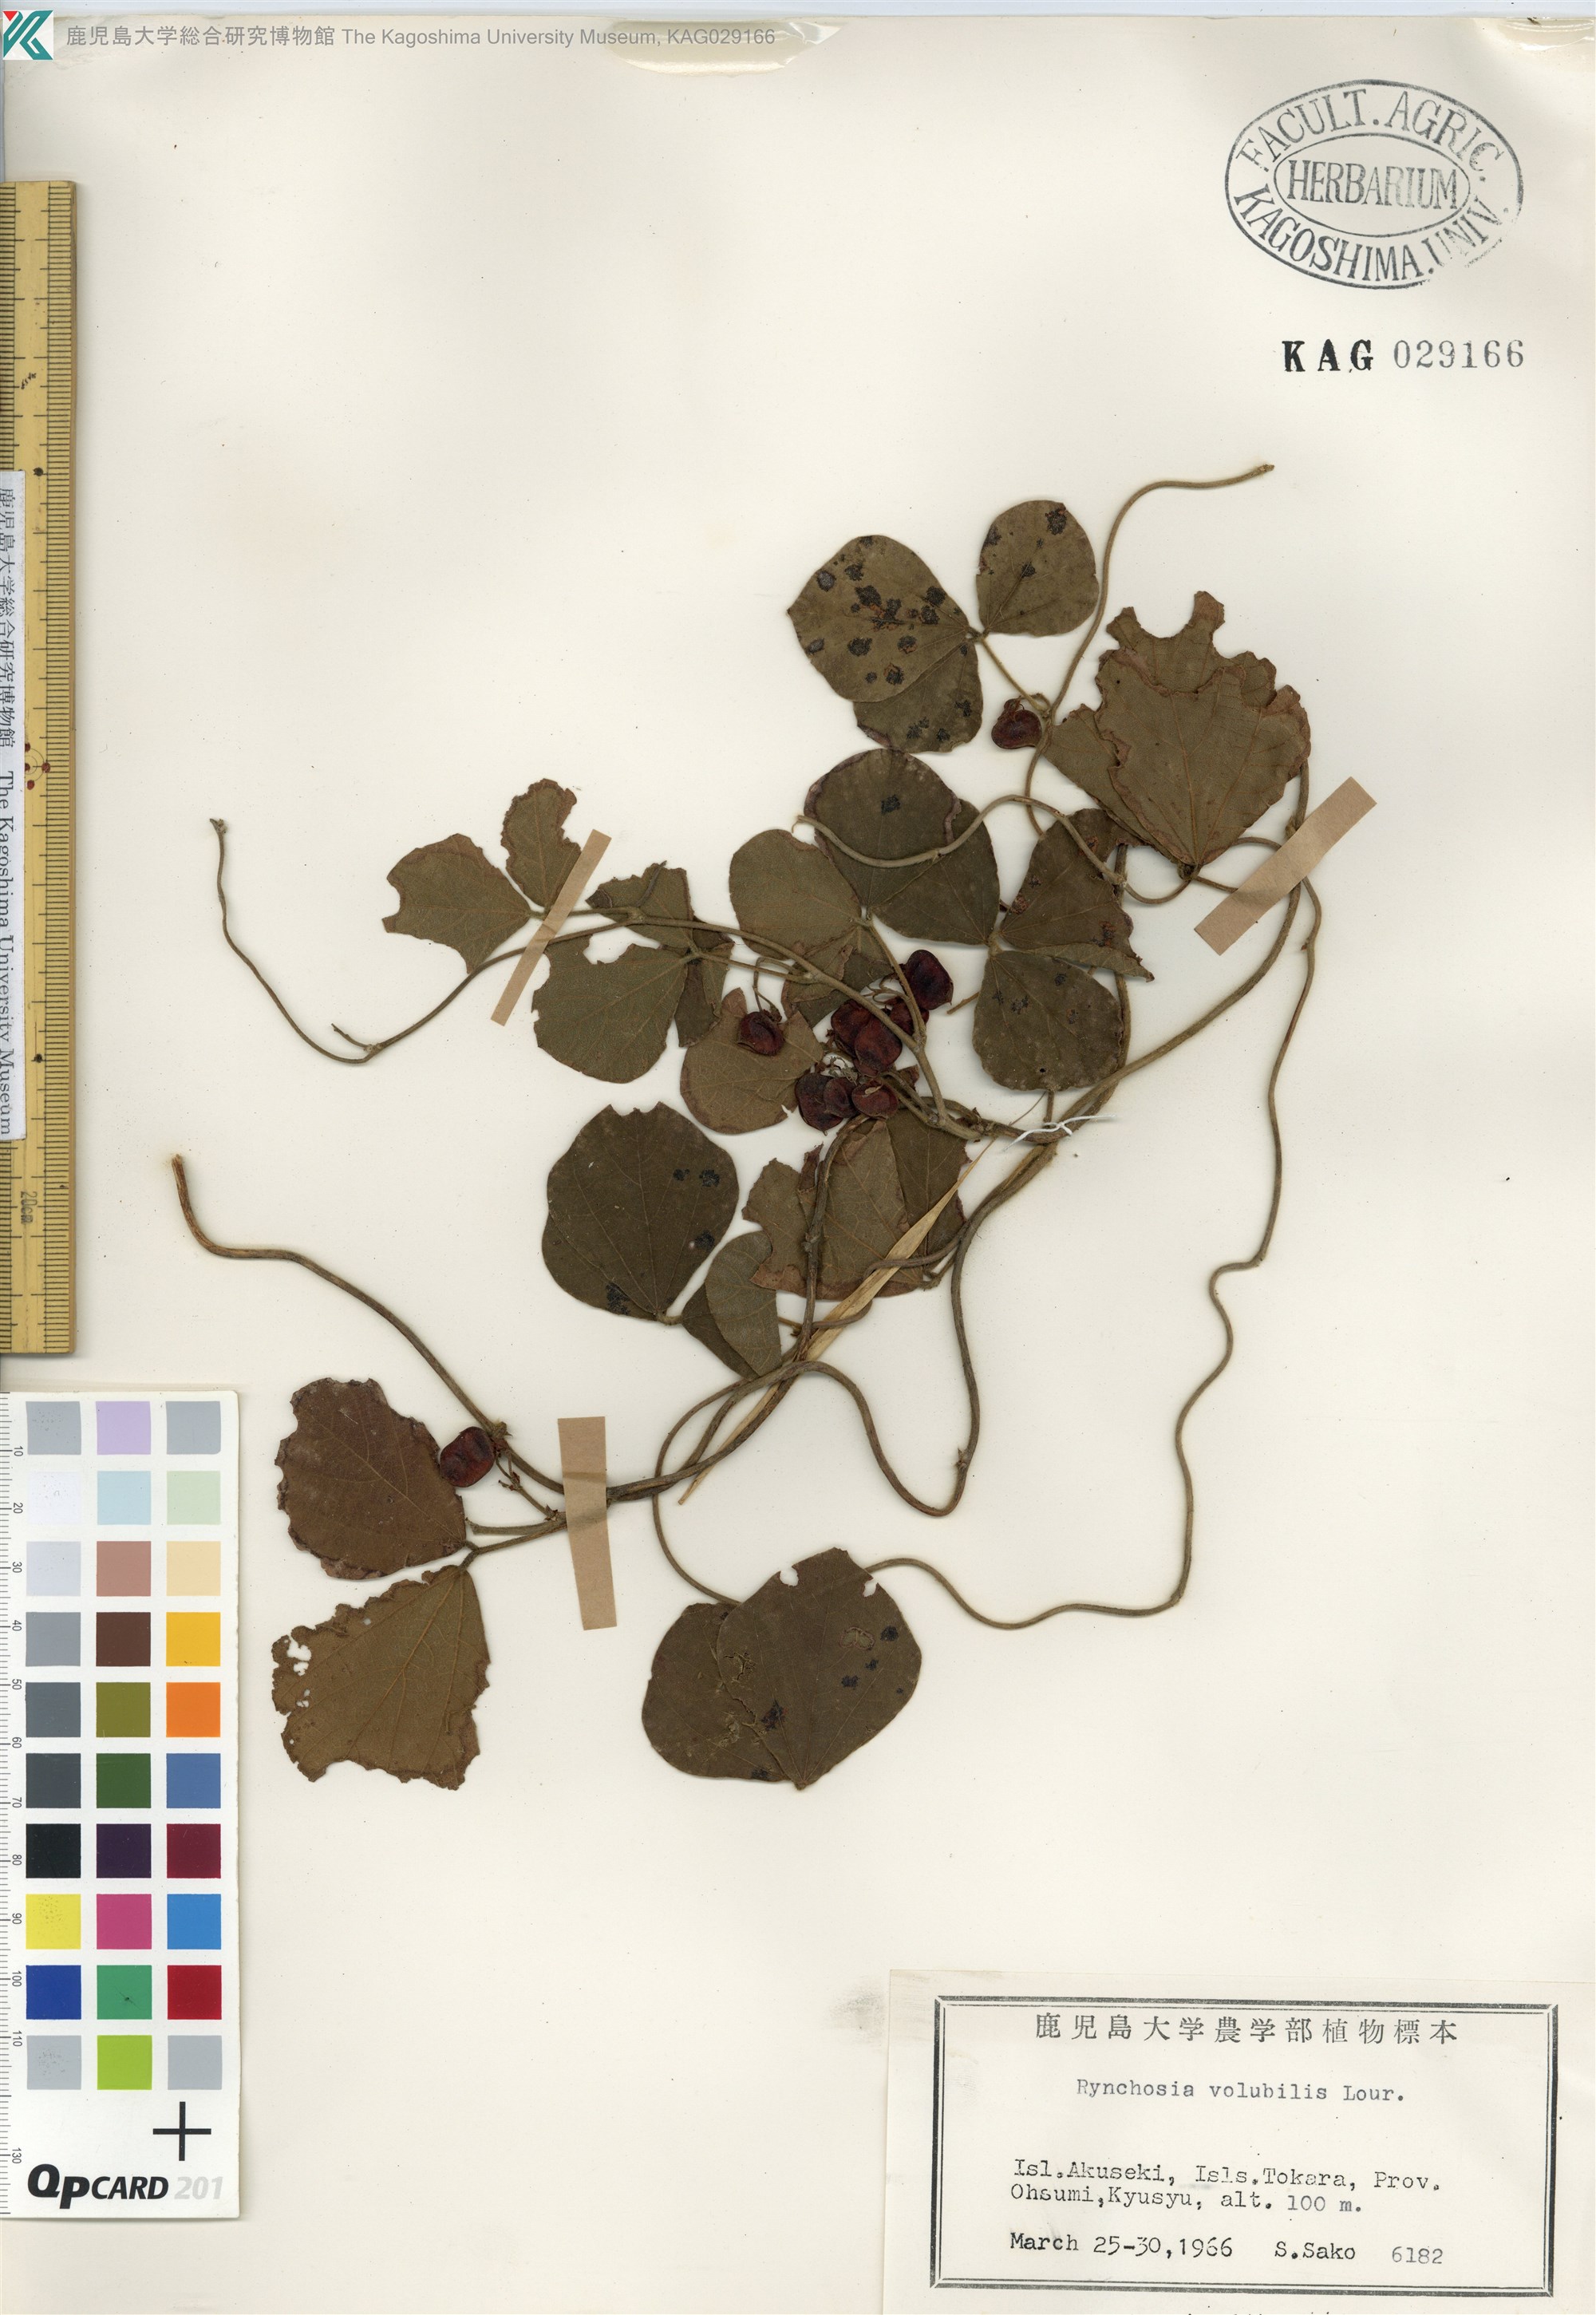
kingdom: Plantae
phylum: Tracheophyta
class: Magnoliopsida
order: Fabales
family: Fabaceae
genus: Rhynchosia
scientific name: Rhynchosia volubilis
